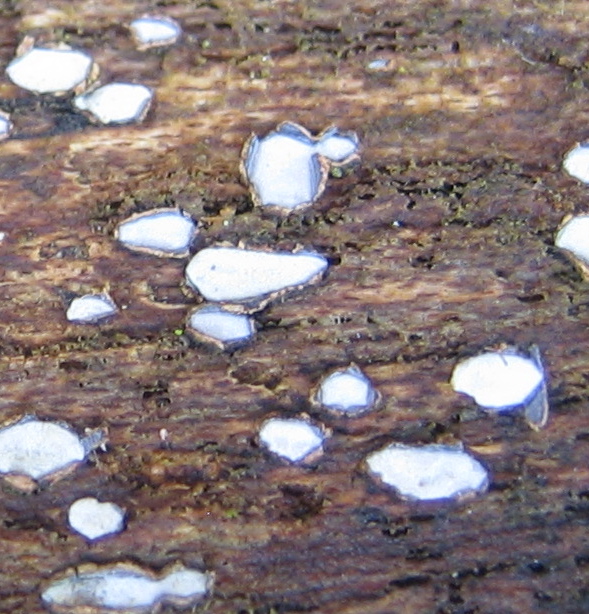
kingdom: Fungi
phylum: Ascomycota
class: Leotiomycetes
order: Rhytismatales
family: Rhytismataceae
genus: Propolis
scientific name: Propolis
